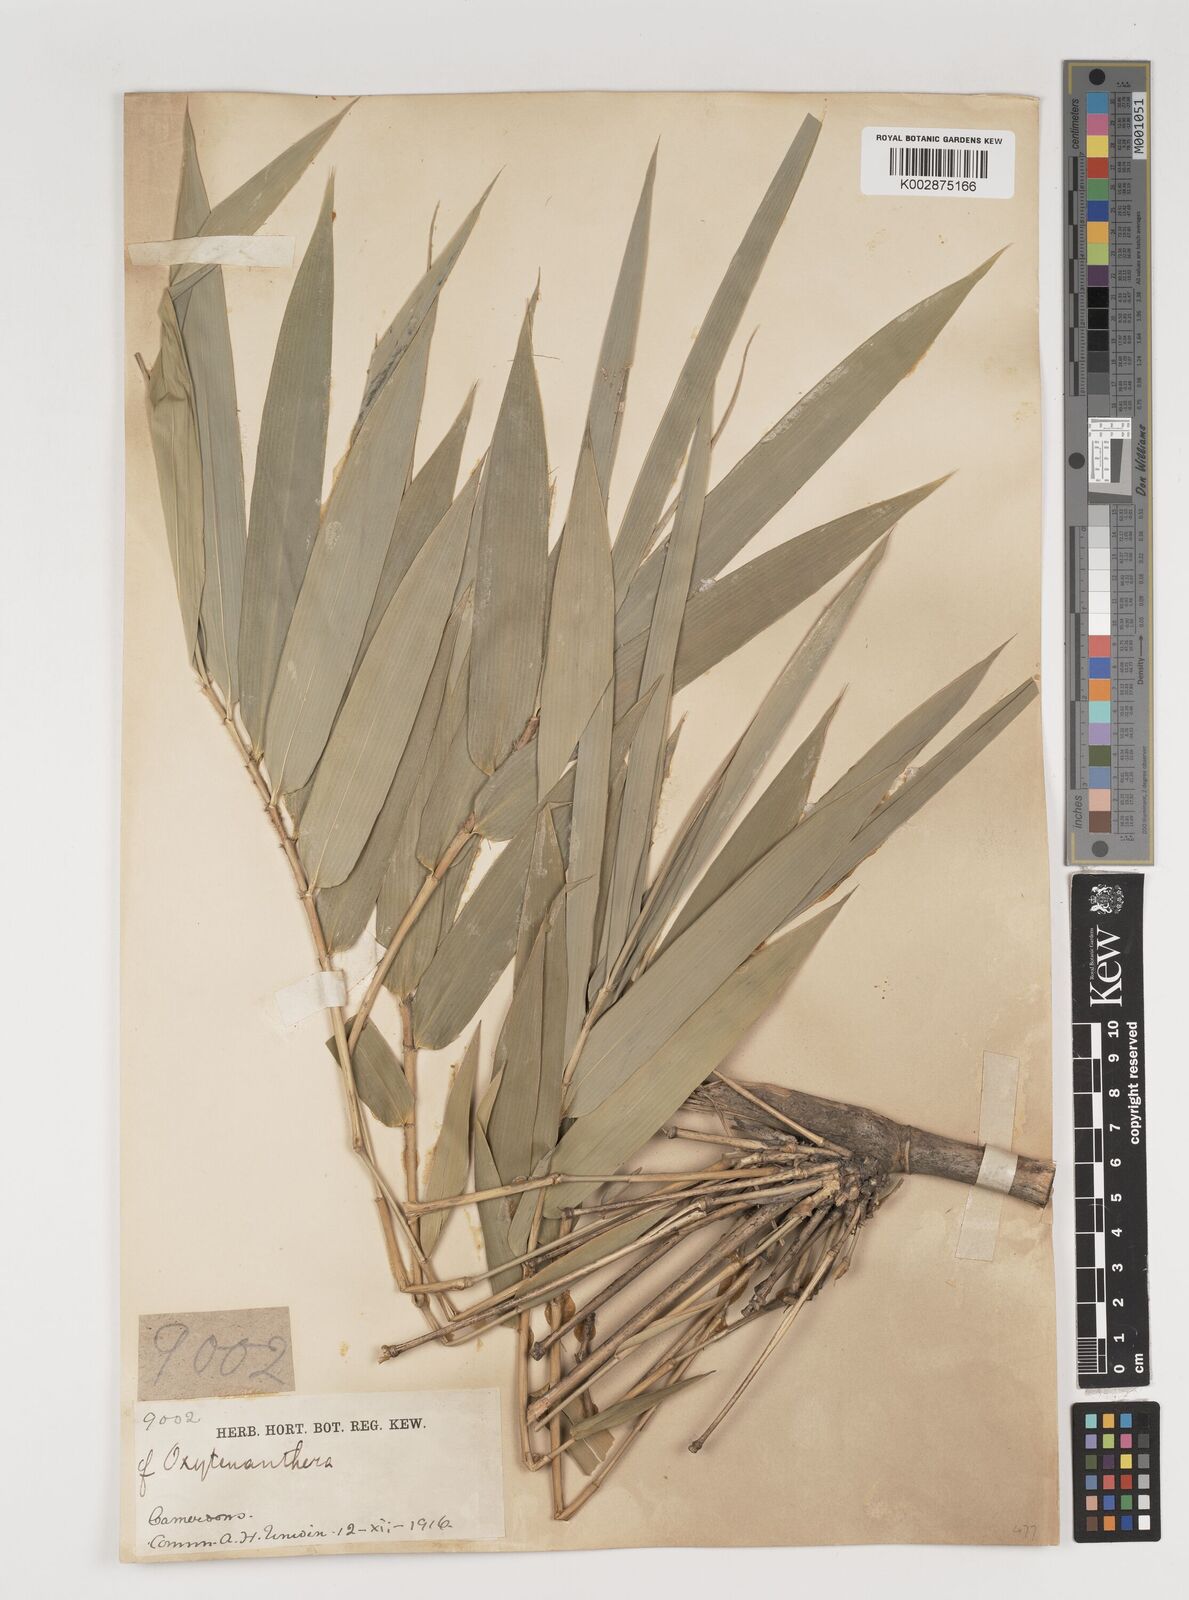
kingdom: Plantae
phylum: Tracheophyta
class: Liliopsida
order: Poales
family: Poaceae
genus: Oxytenanthera
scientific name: Oxytenanthera abyssinica
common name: Wine bamboo
